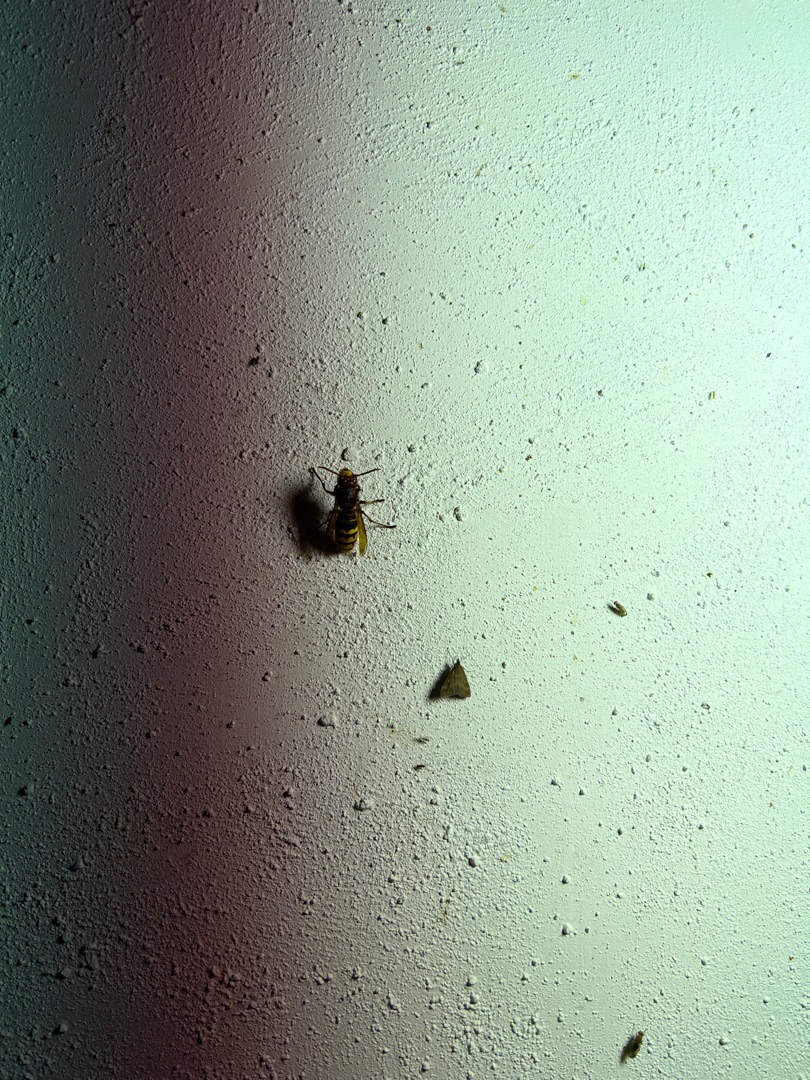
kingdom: Animalia
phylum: Arthropoda
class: Insecta
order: Hymenoptera
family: Vespidae
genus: Vespa
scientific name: Vespa crabro
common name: Stor gedehams
